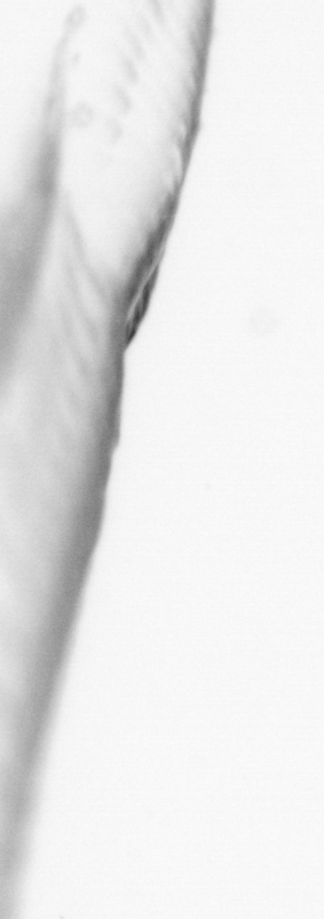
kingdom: Animalia
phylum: Chordata
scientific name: Chordata
